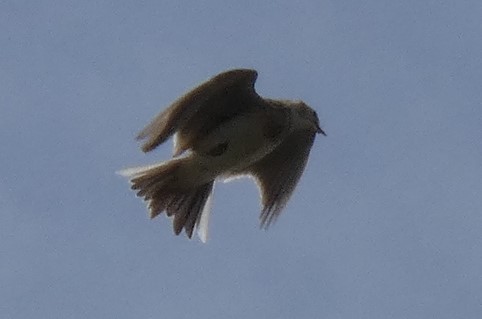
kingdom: Animalia
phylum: Chordata
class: Aves
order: Passeriformes
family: Alaudidae
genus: Alauda
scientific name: Alauda arvensis
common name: Sanglærke
